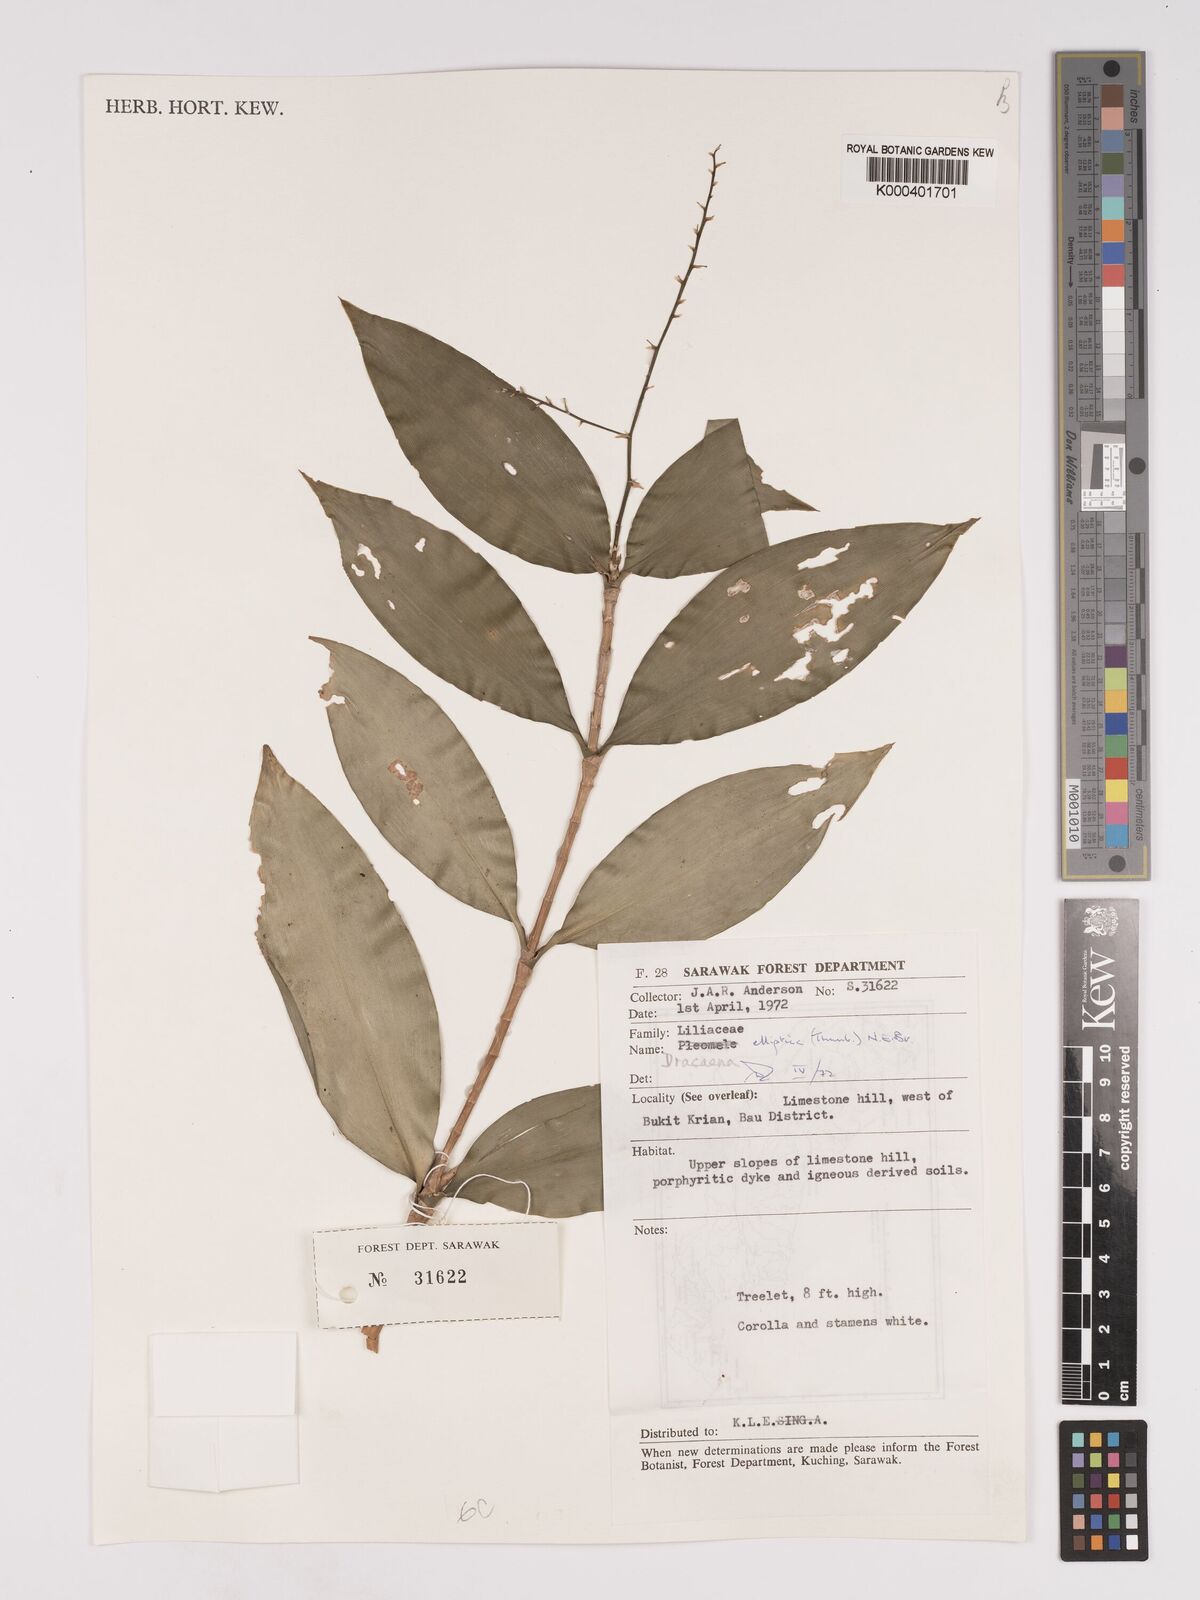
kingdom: Plantae
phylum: Tracheophyta
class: Liliopsida
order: Asparagales
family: Asparagaceae
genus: Dracaena
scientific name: Dracaena elliptica
